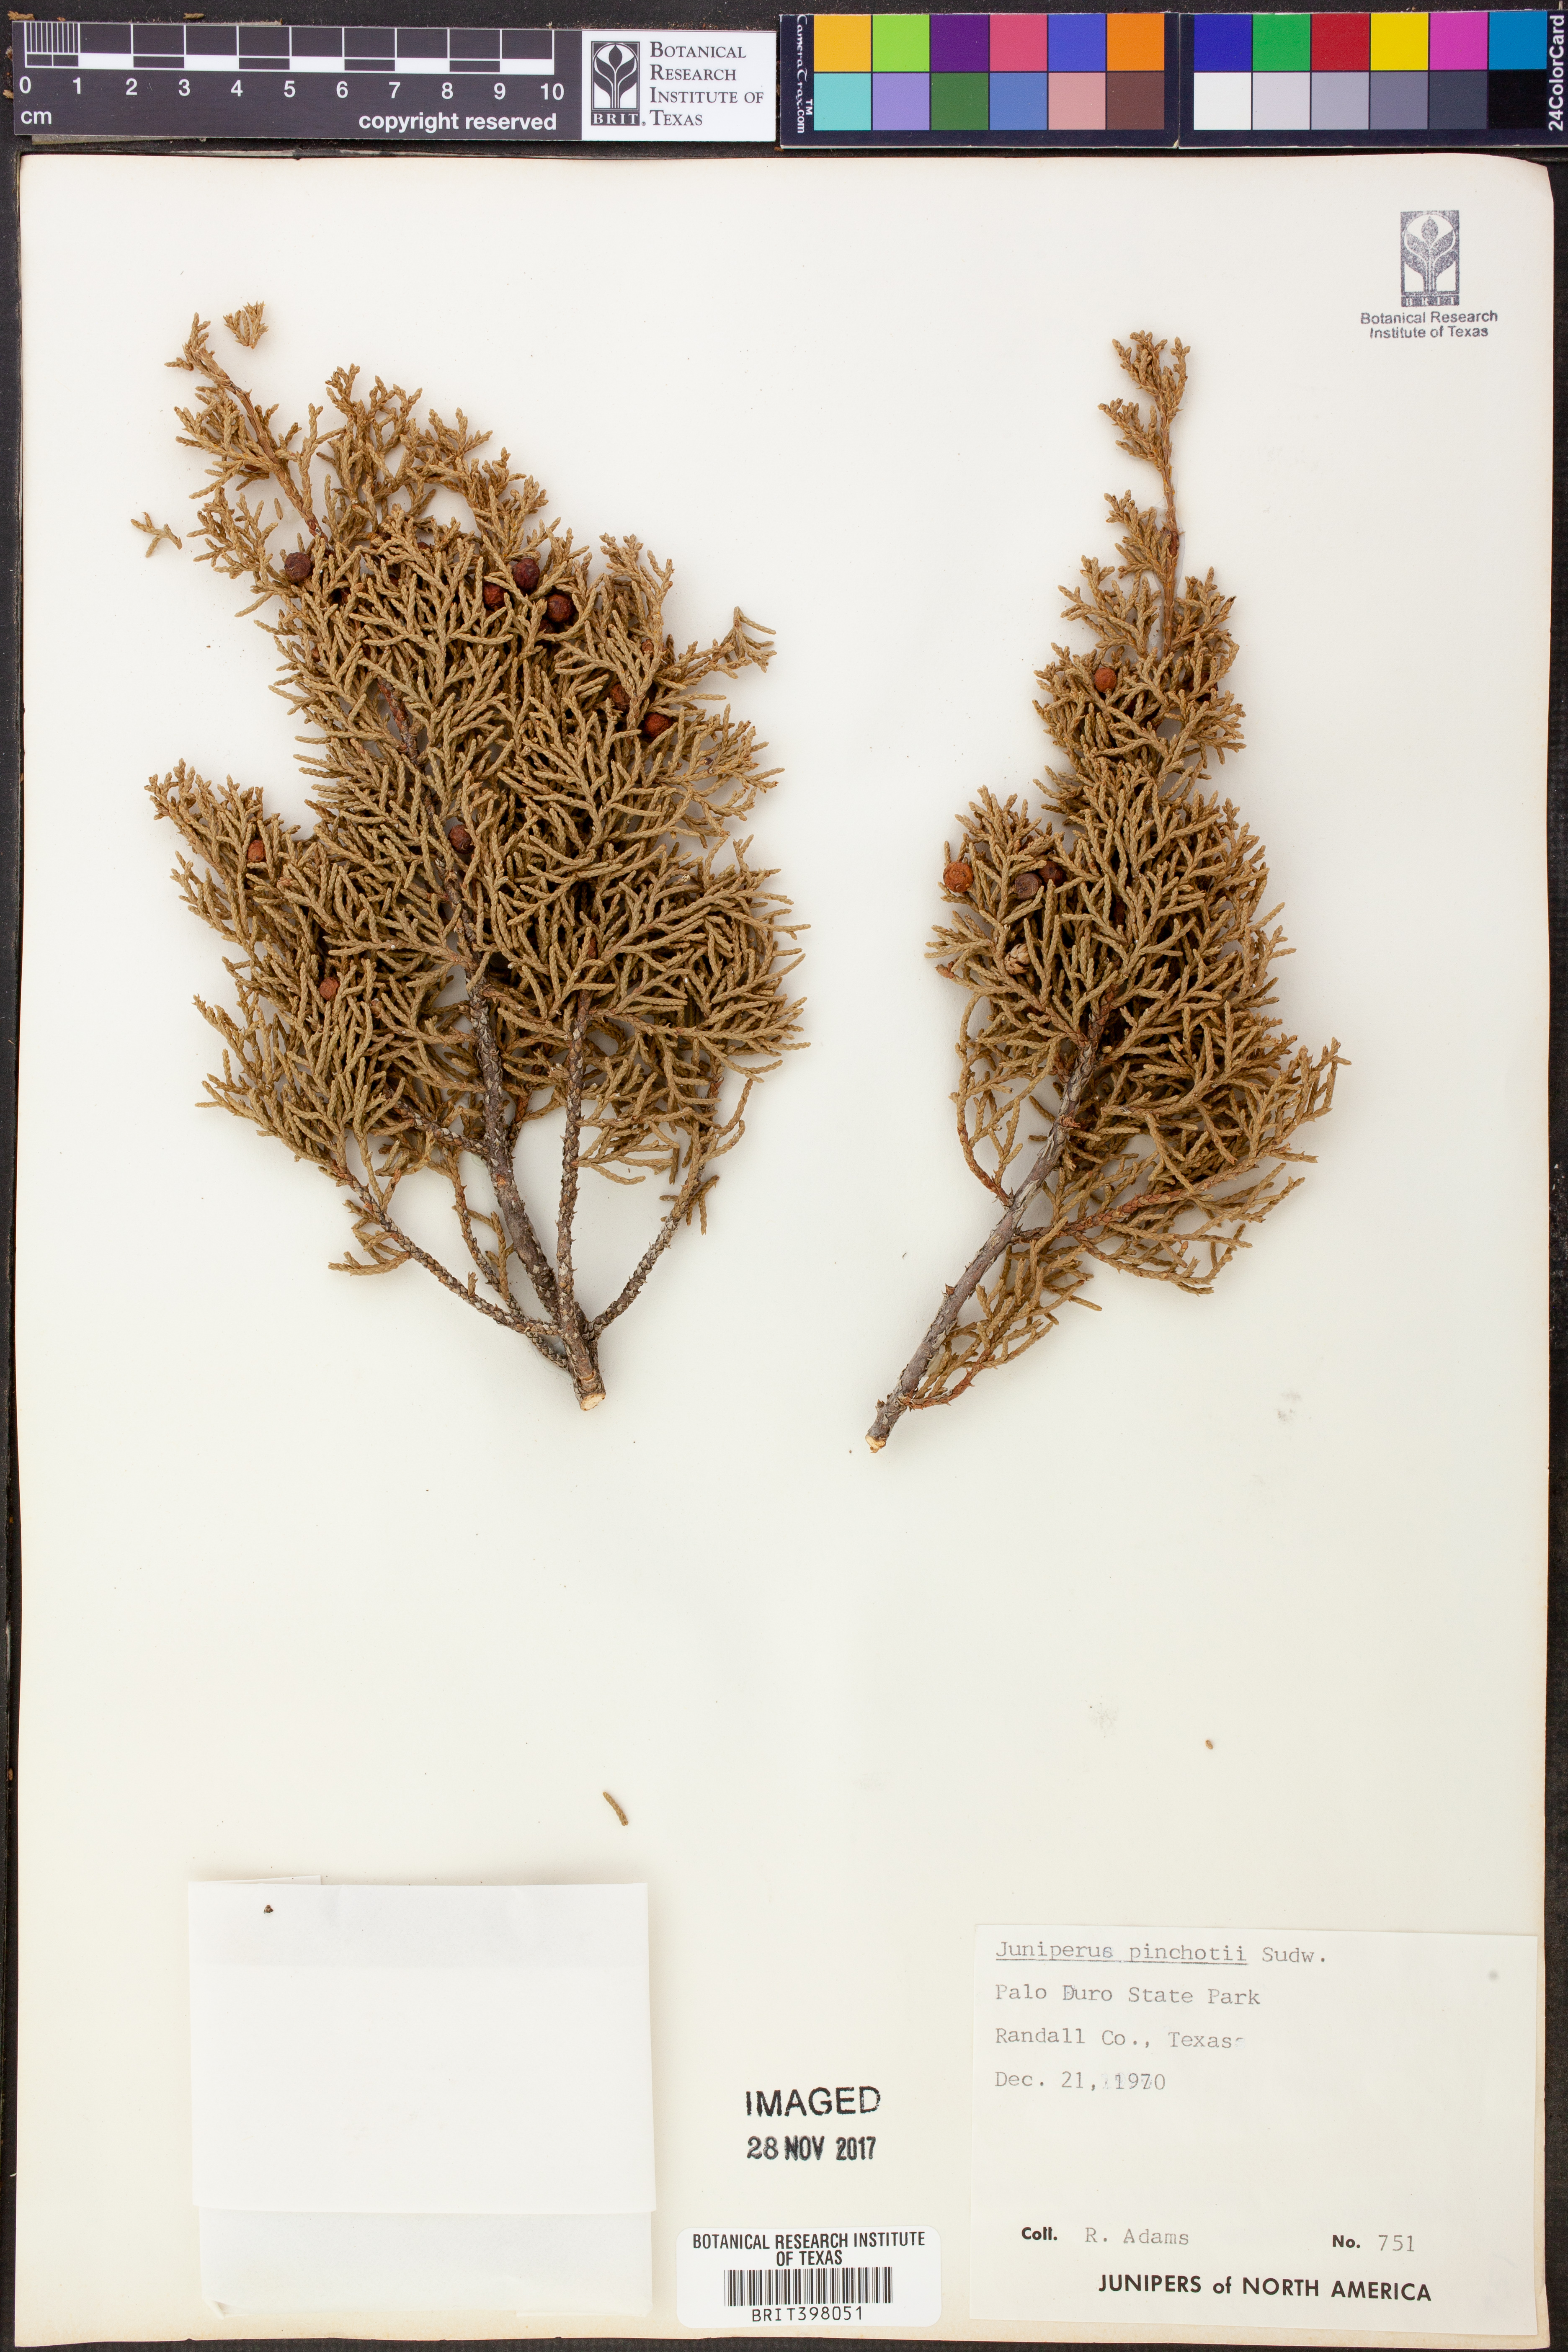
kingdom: Plantae
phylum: Tracheophyta
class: Pinopsida
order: Pinales
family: Cupressaceae
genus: Juniperus
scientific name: Juniperus pinchotii
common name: Pinchot juniper
